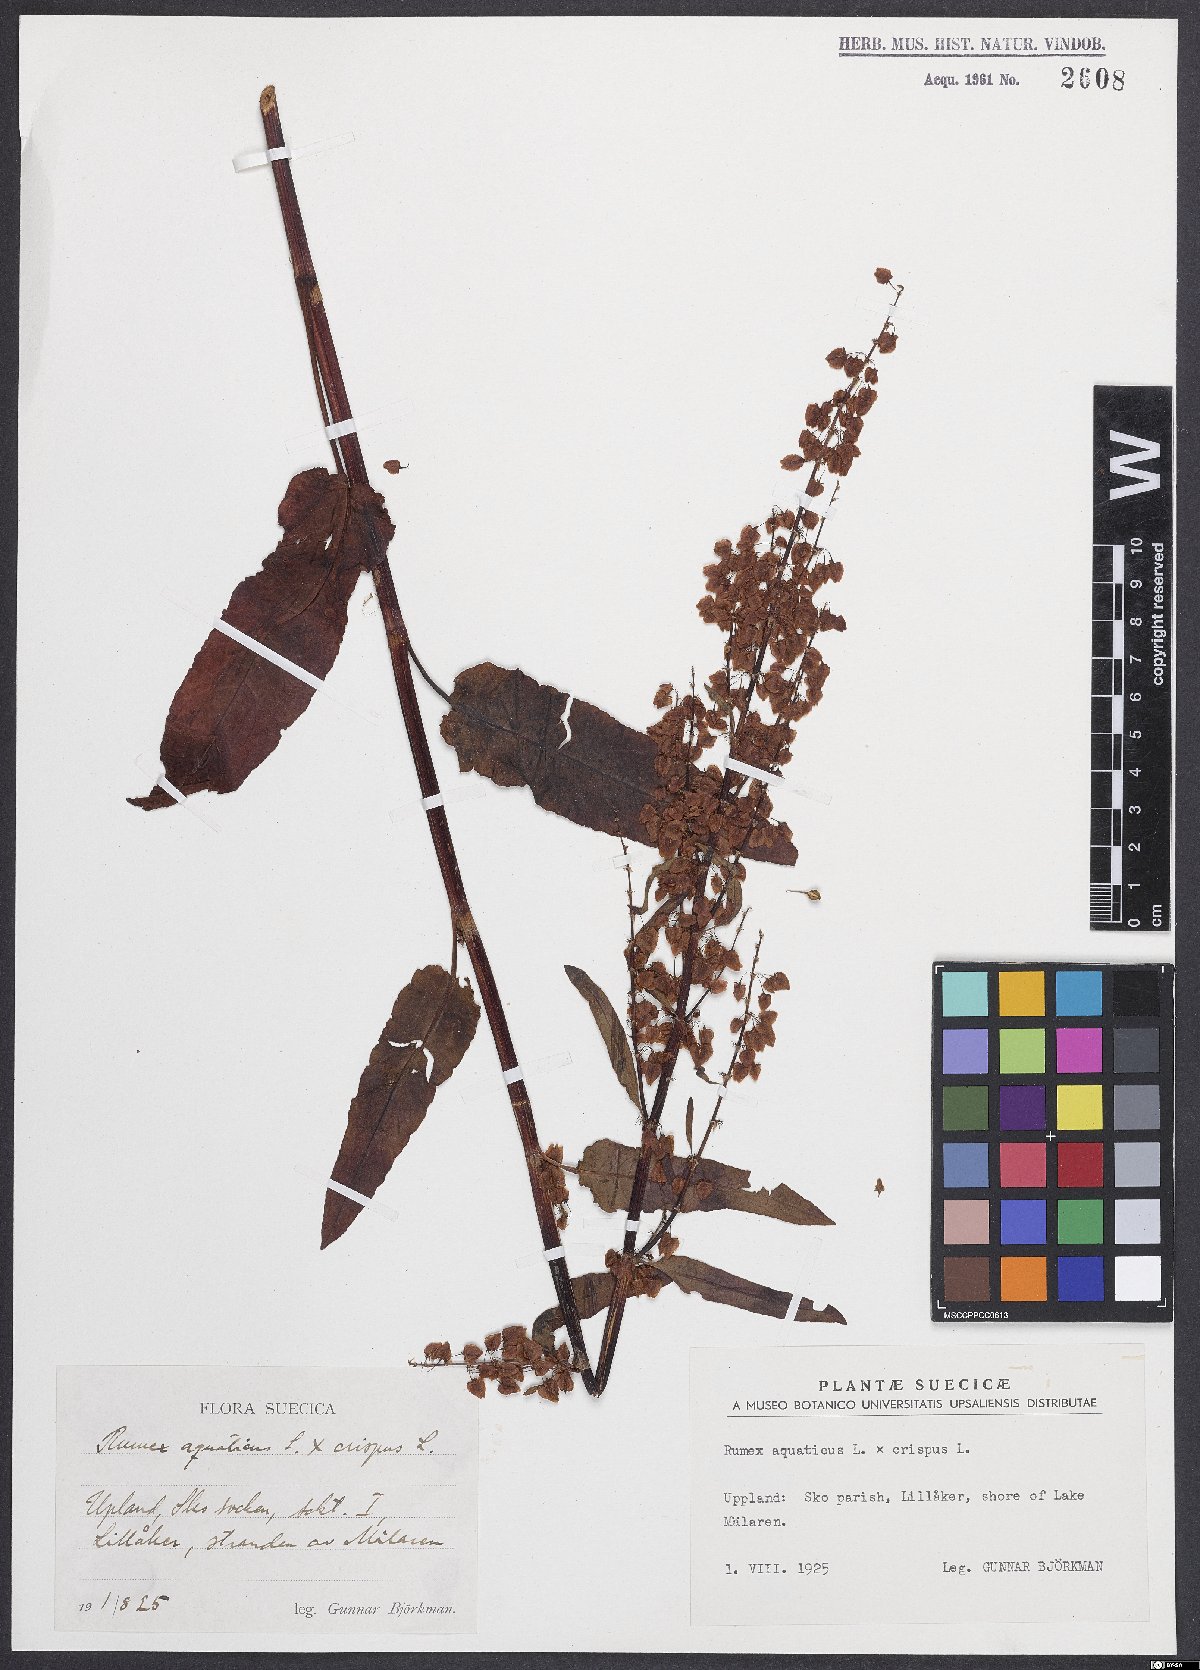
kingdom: Plantae
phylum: Tracheophyta
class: Magnoliopsida
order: Caryophyllales
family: Polygonaceae
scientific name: Polygonaceae
